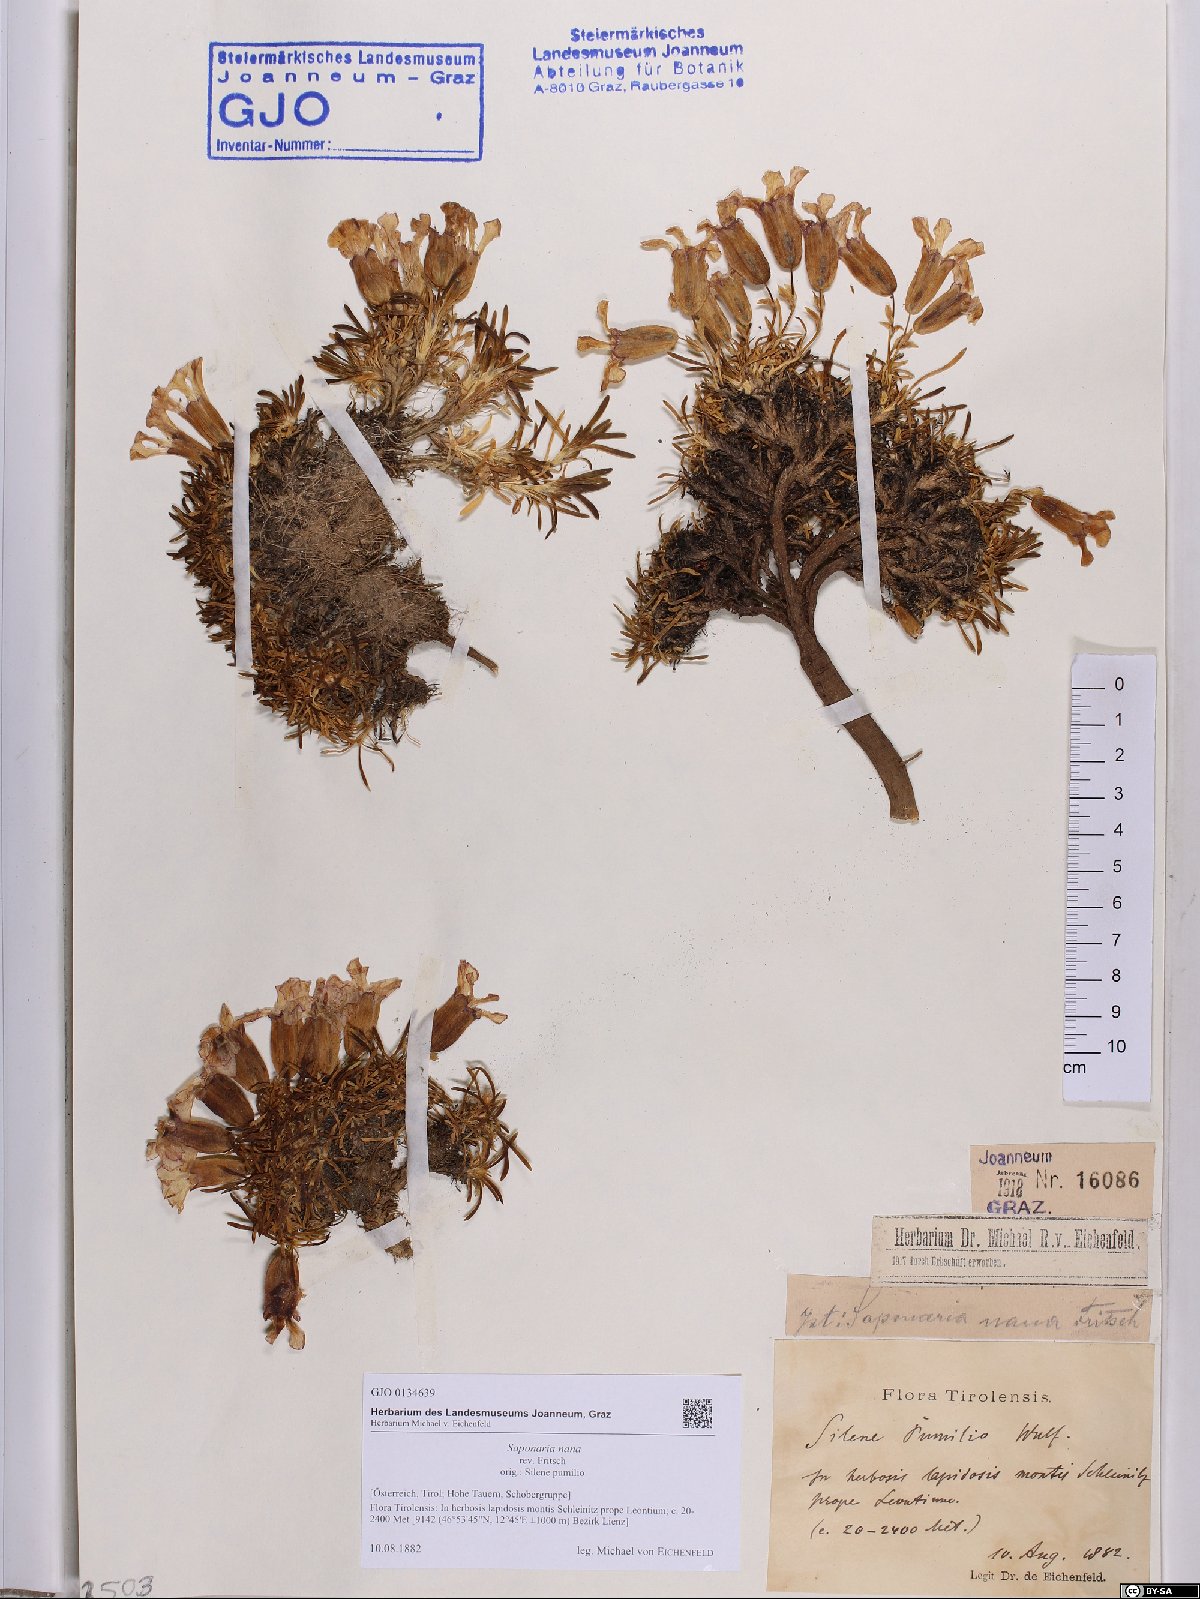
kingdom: Plantae
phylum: Tracheophyta
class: Magnoliopsida
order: Caryophyllales
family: Caryophyllaceae
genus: Saponaria
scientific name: Saponaria pumila
